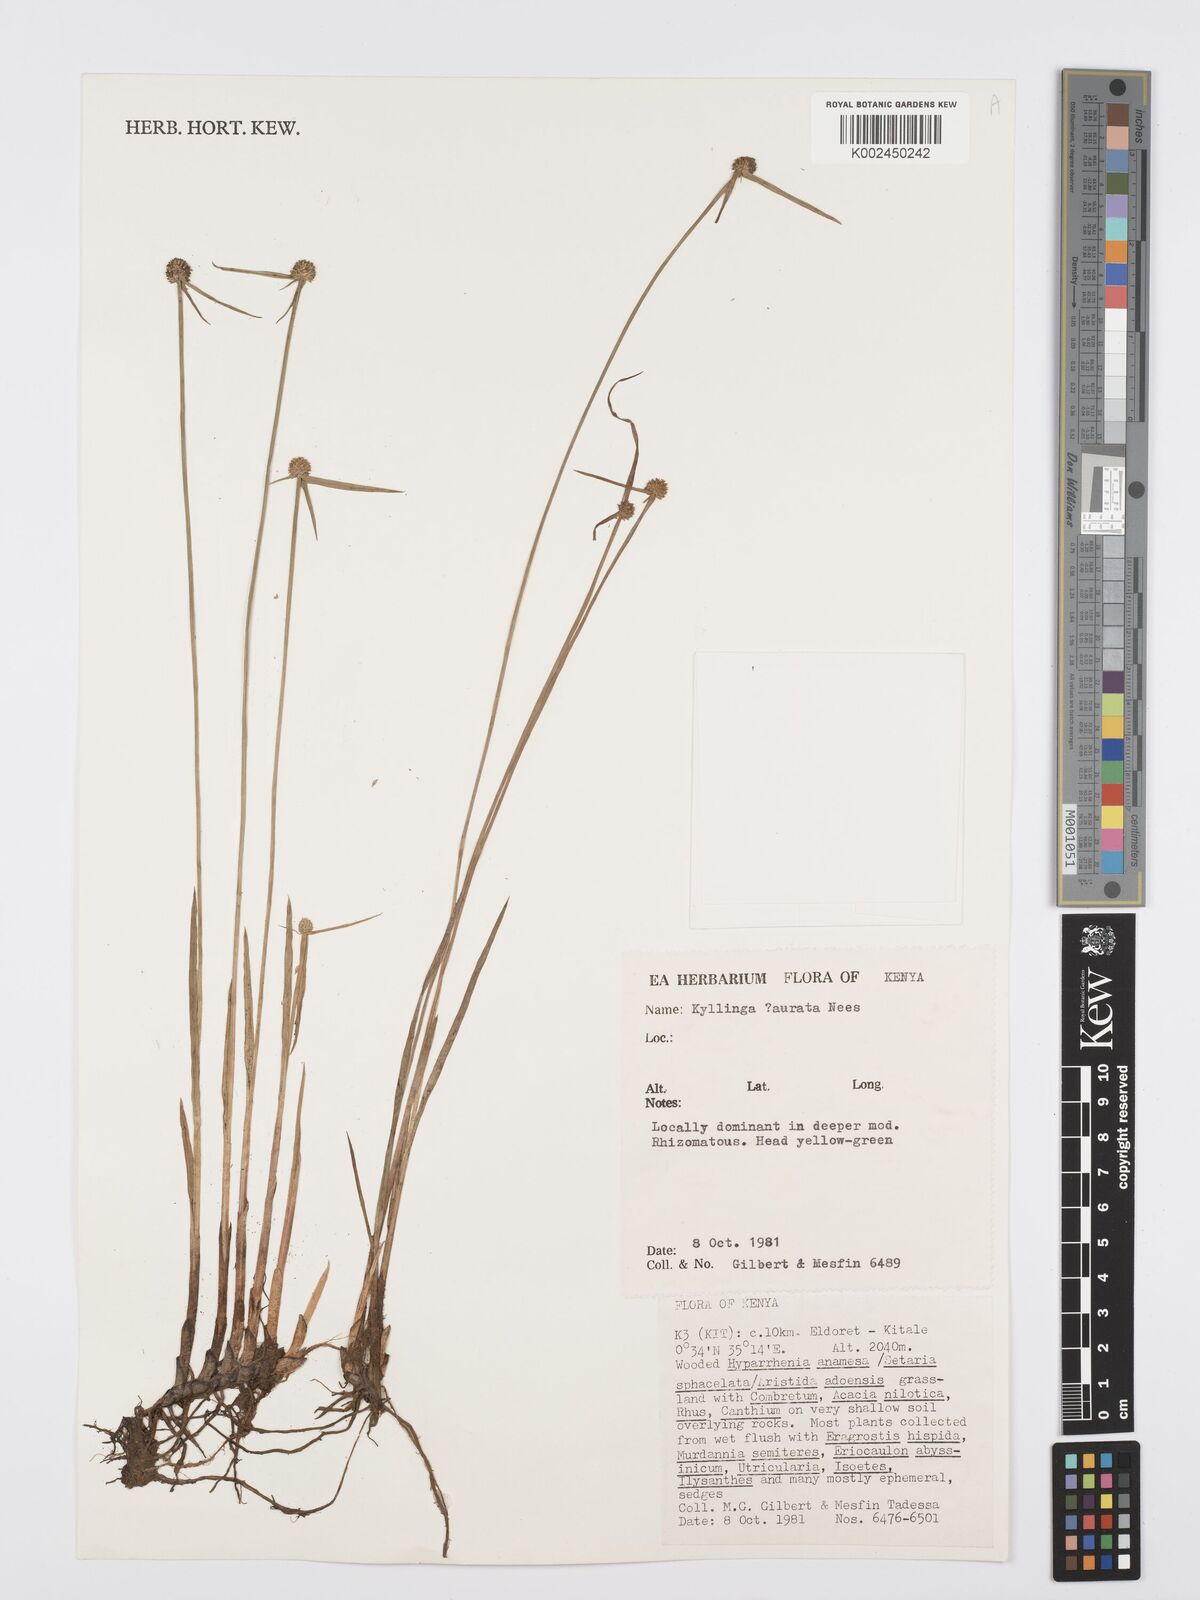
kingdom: Plantae
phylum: Tracheophyta
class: Liliopsida
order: Poales
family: Cyperaceae
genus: Cyperus
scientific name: Cyperus
